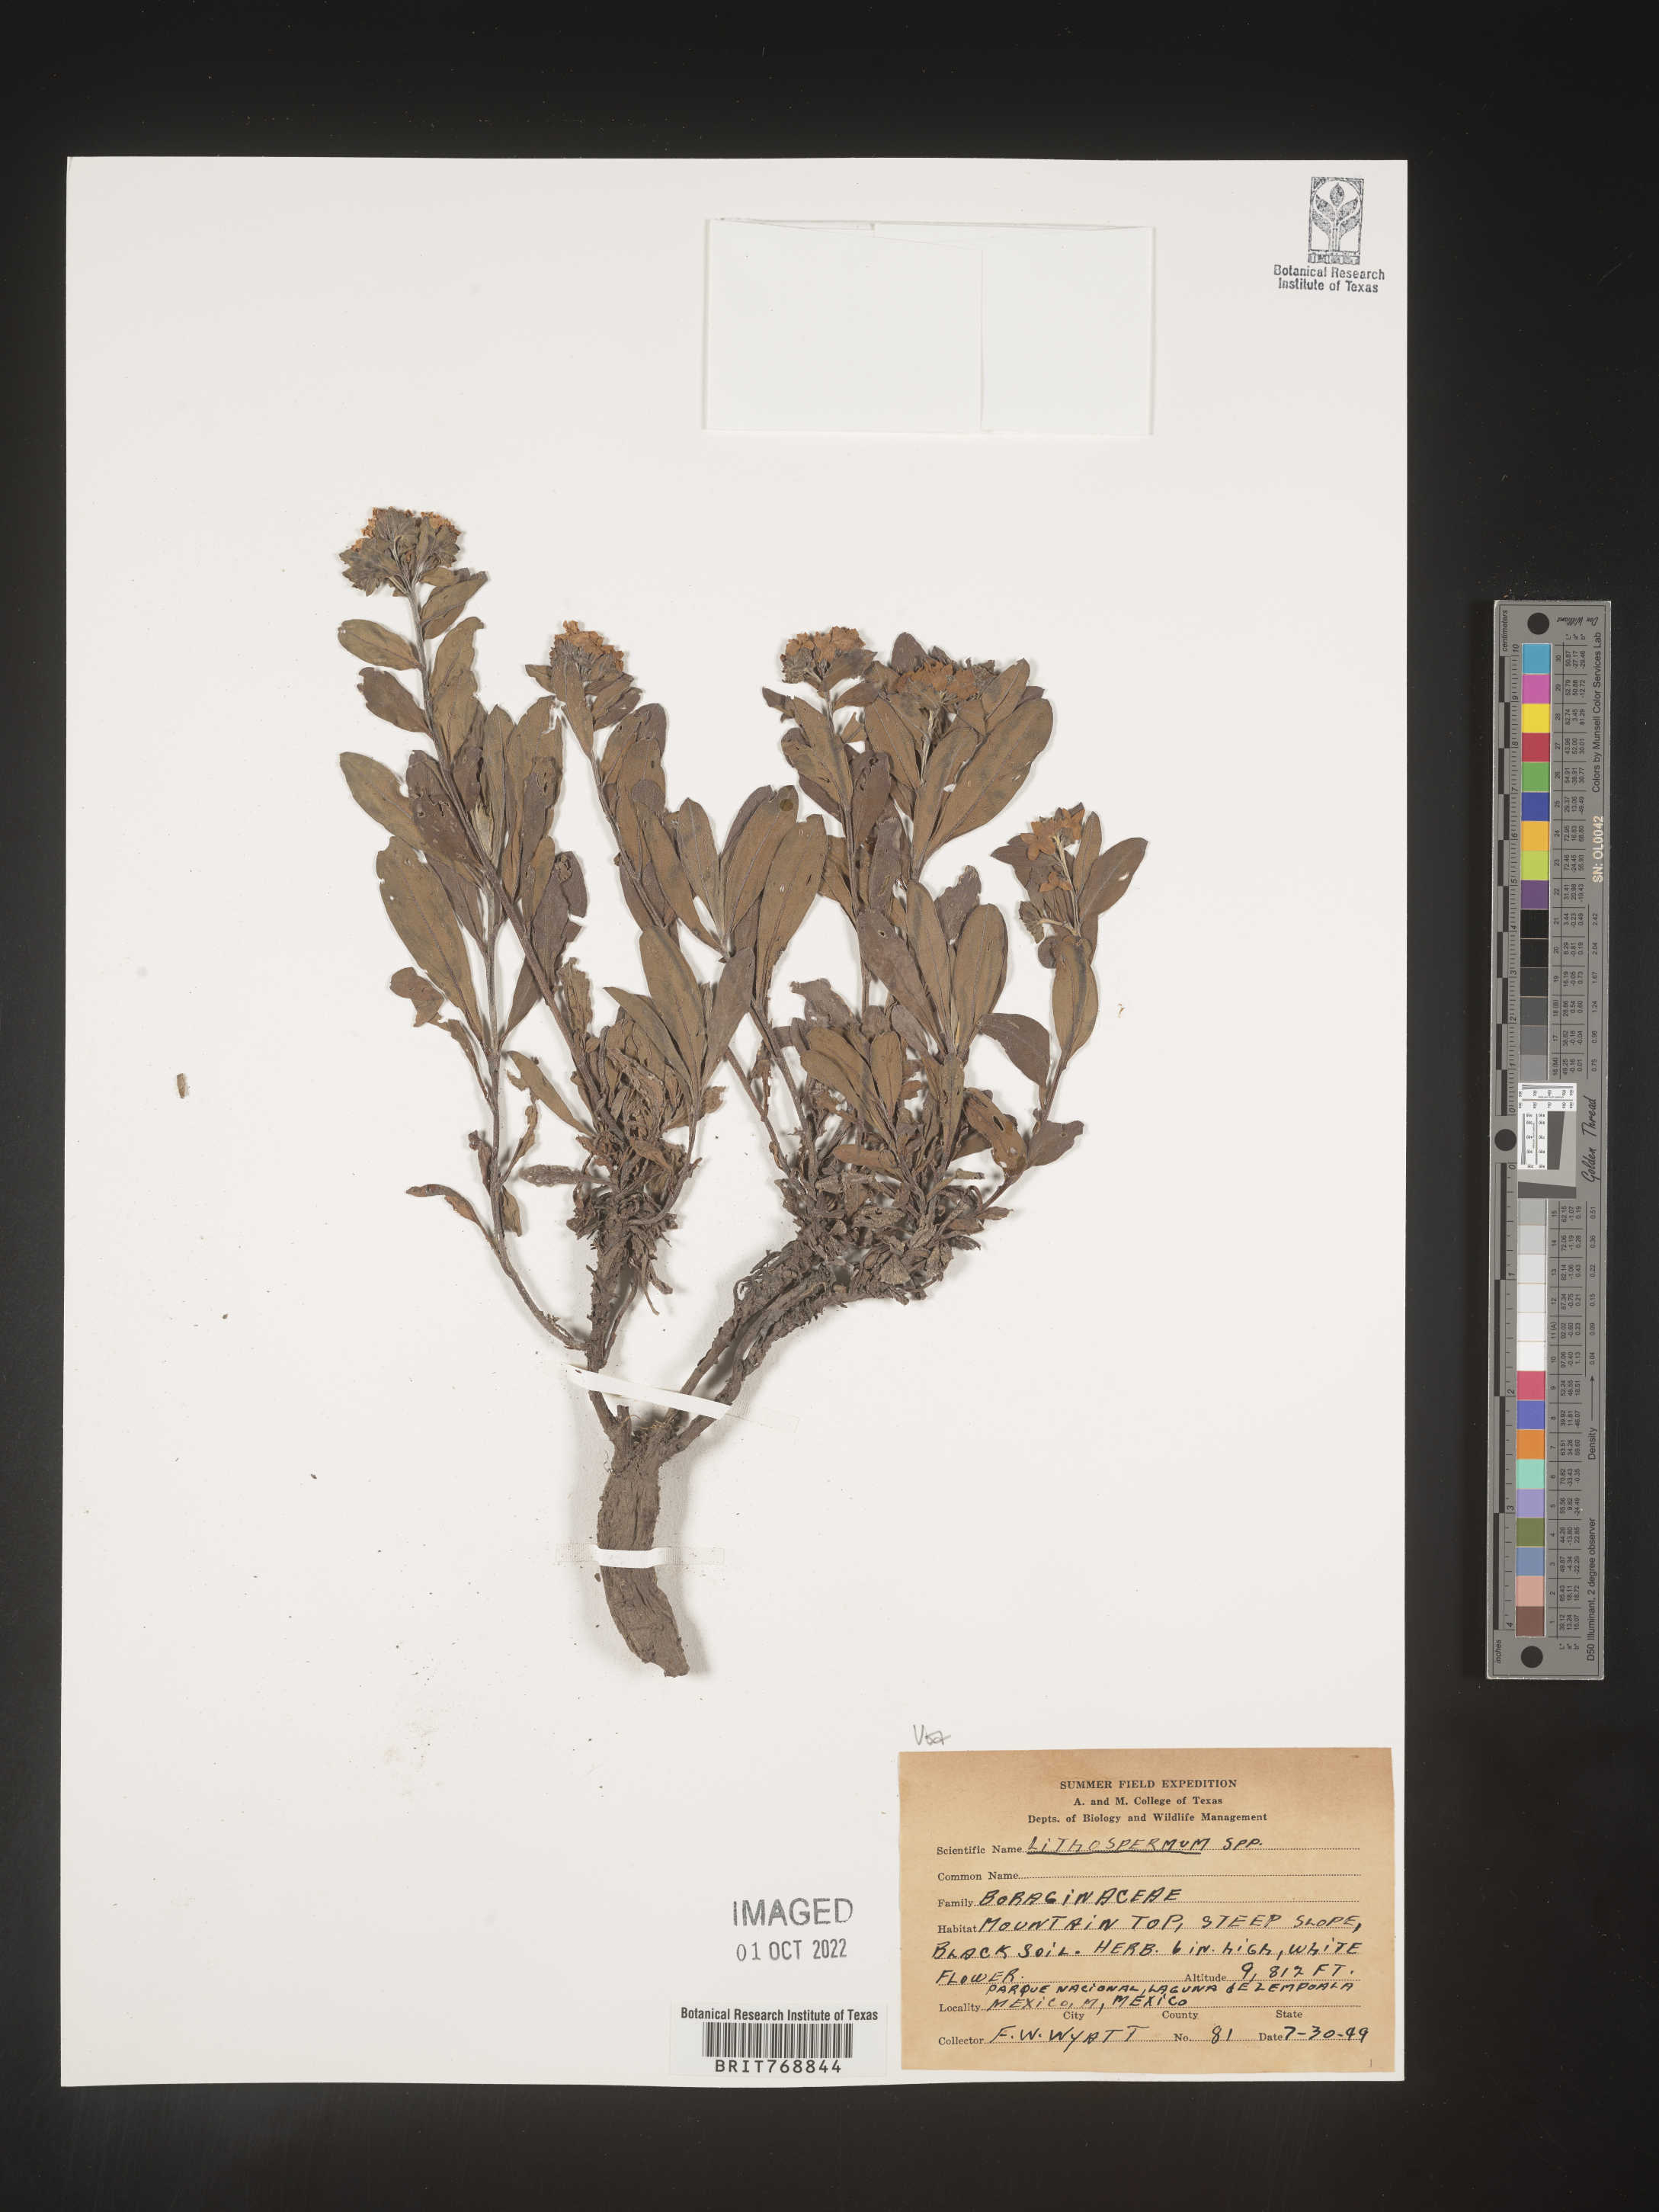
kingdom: Plantae
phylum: Tracheophyta
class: Magnoliopsida
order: Boraginales
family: Boraginaceae
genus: Lithospermum
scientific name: Lithospermum
